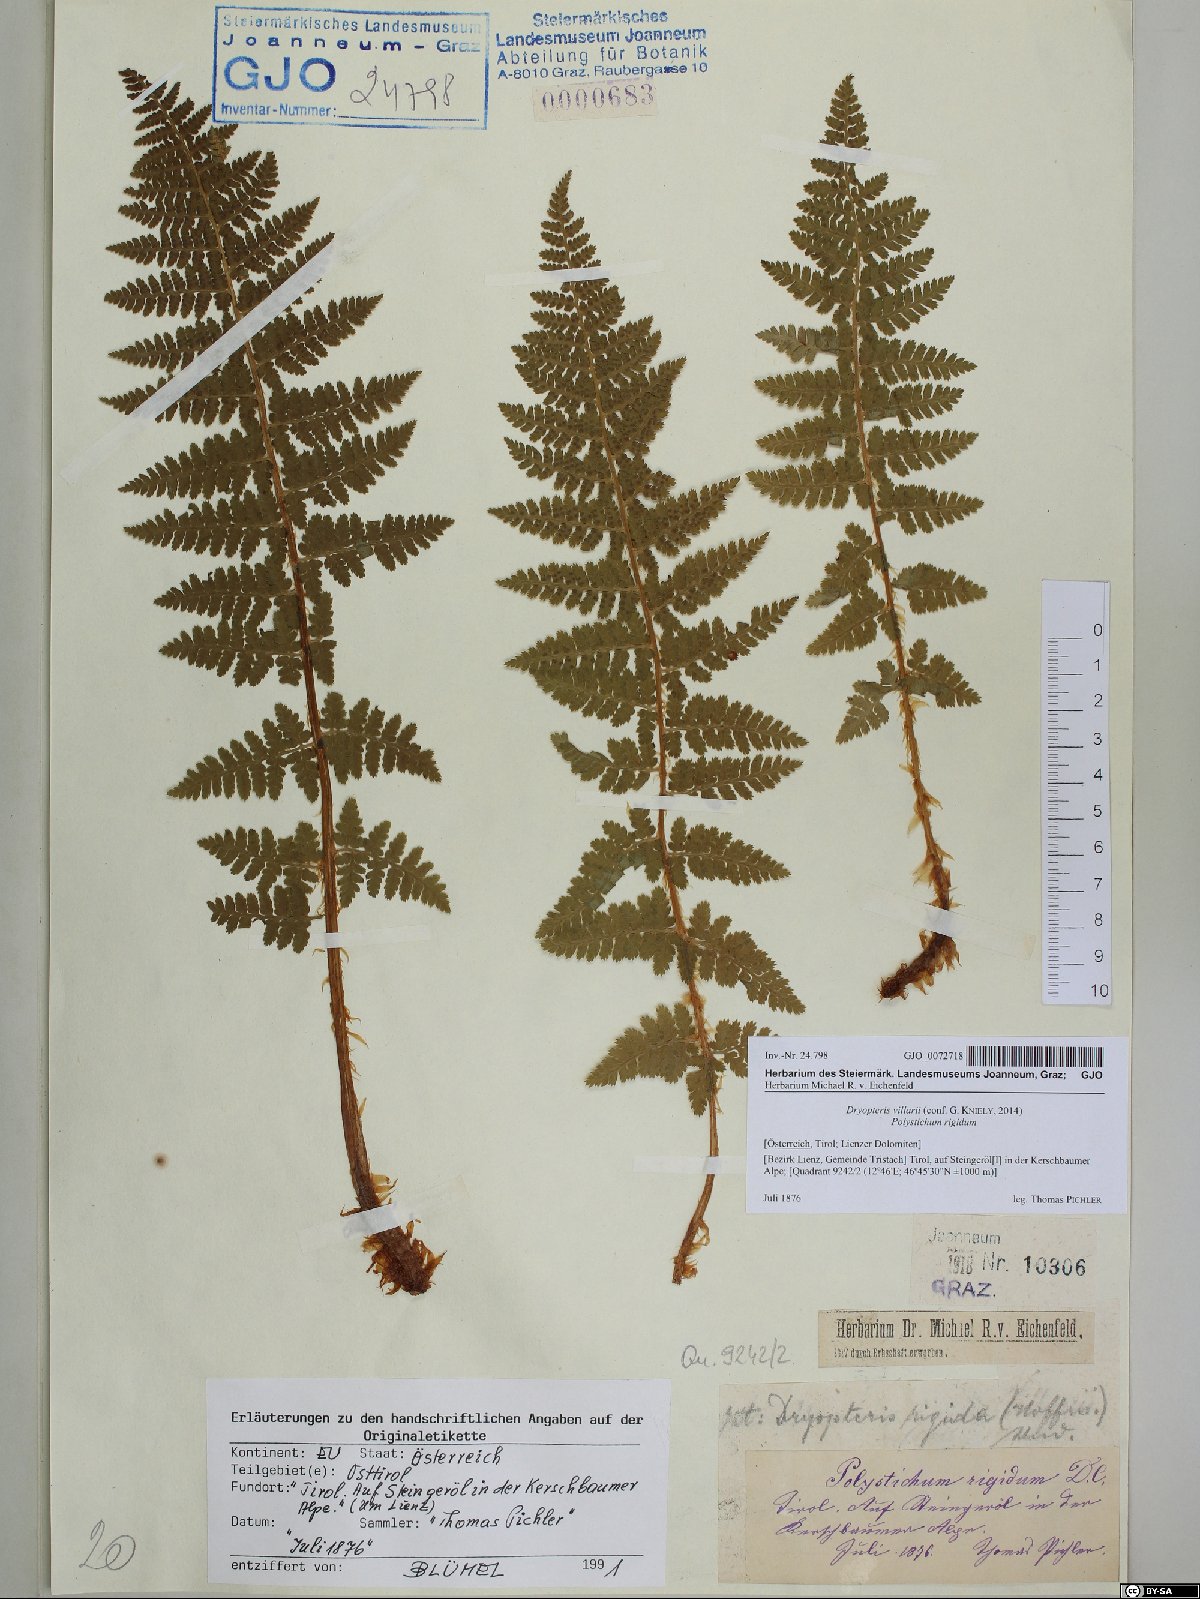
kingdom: Plantae
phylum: Tracheophyta
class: Polypodiopsida
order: Polypodiales
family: Dryopteridaceae
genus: Dryopteris
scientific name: Dryopteris villarii
